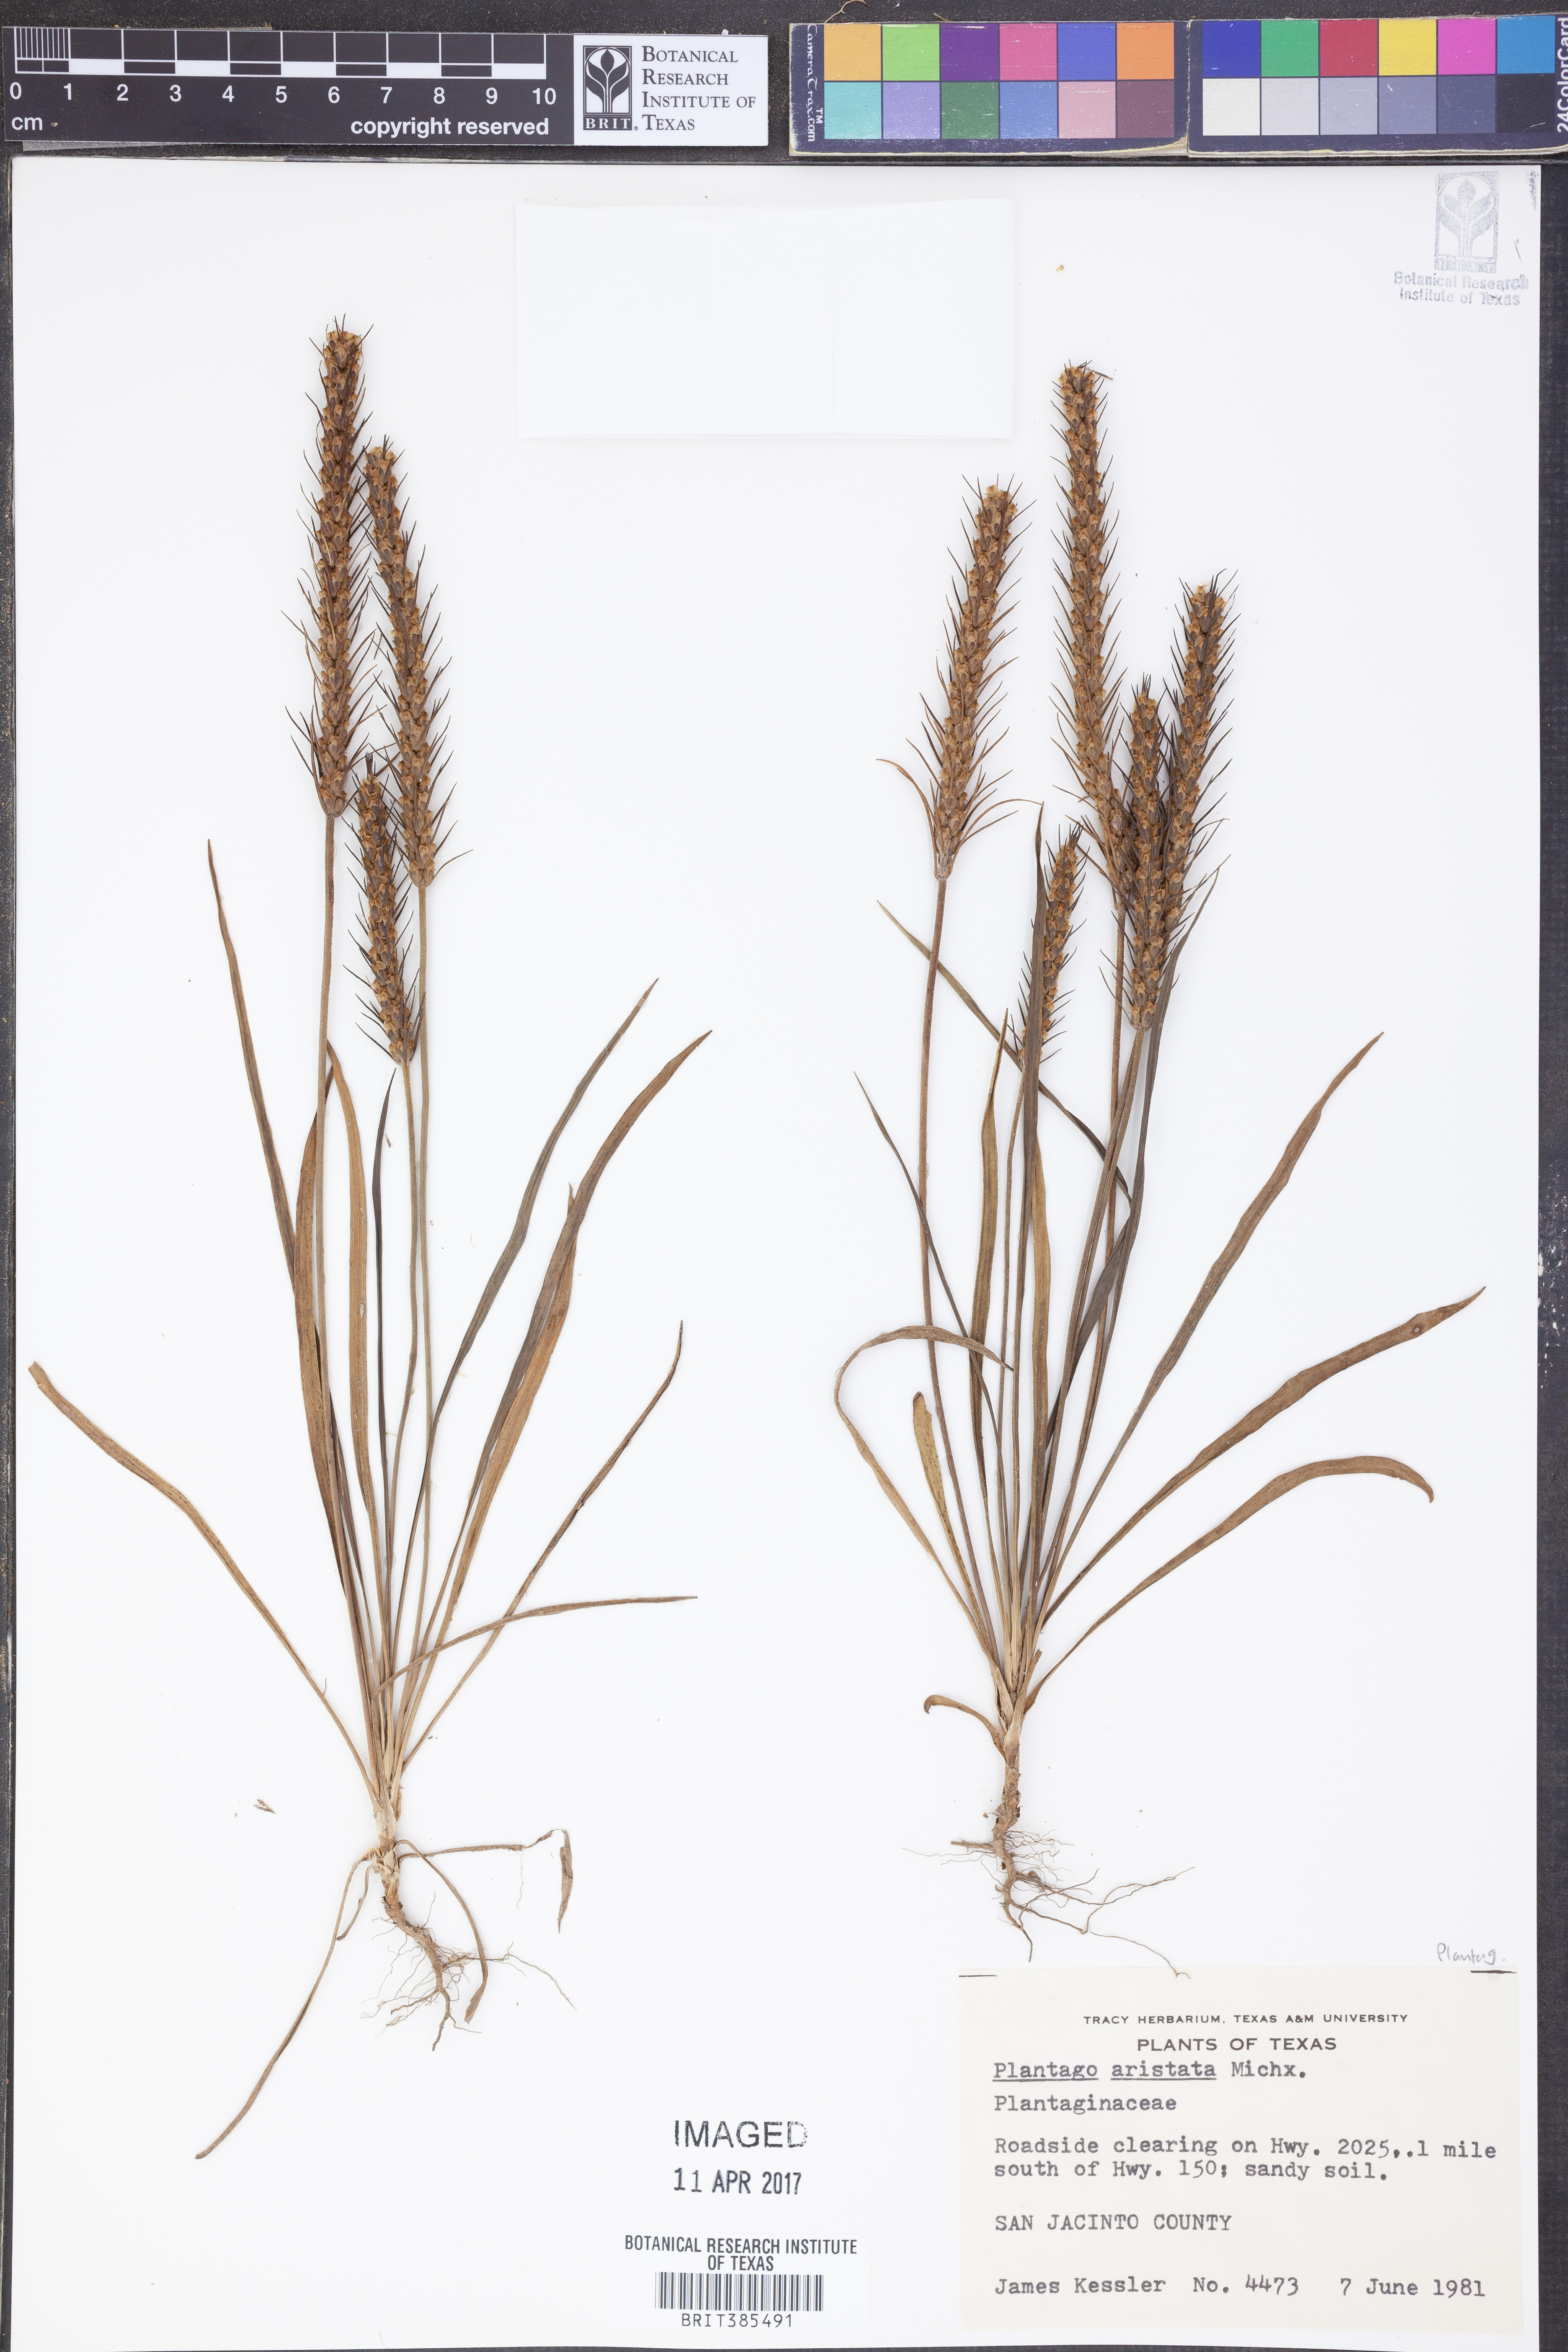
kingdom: Plantae
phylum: Tracheophyta
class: Magnoliopsida
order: Lamiales
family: Plantaginaceae
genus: Plantago
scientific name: Plantago aristata
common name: Bracted plantain
